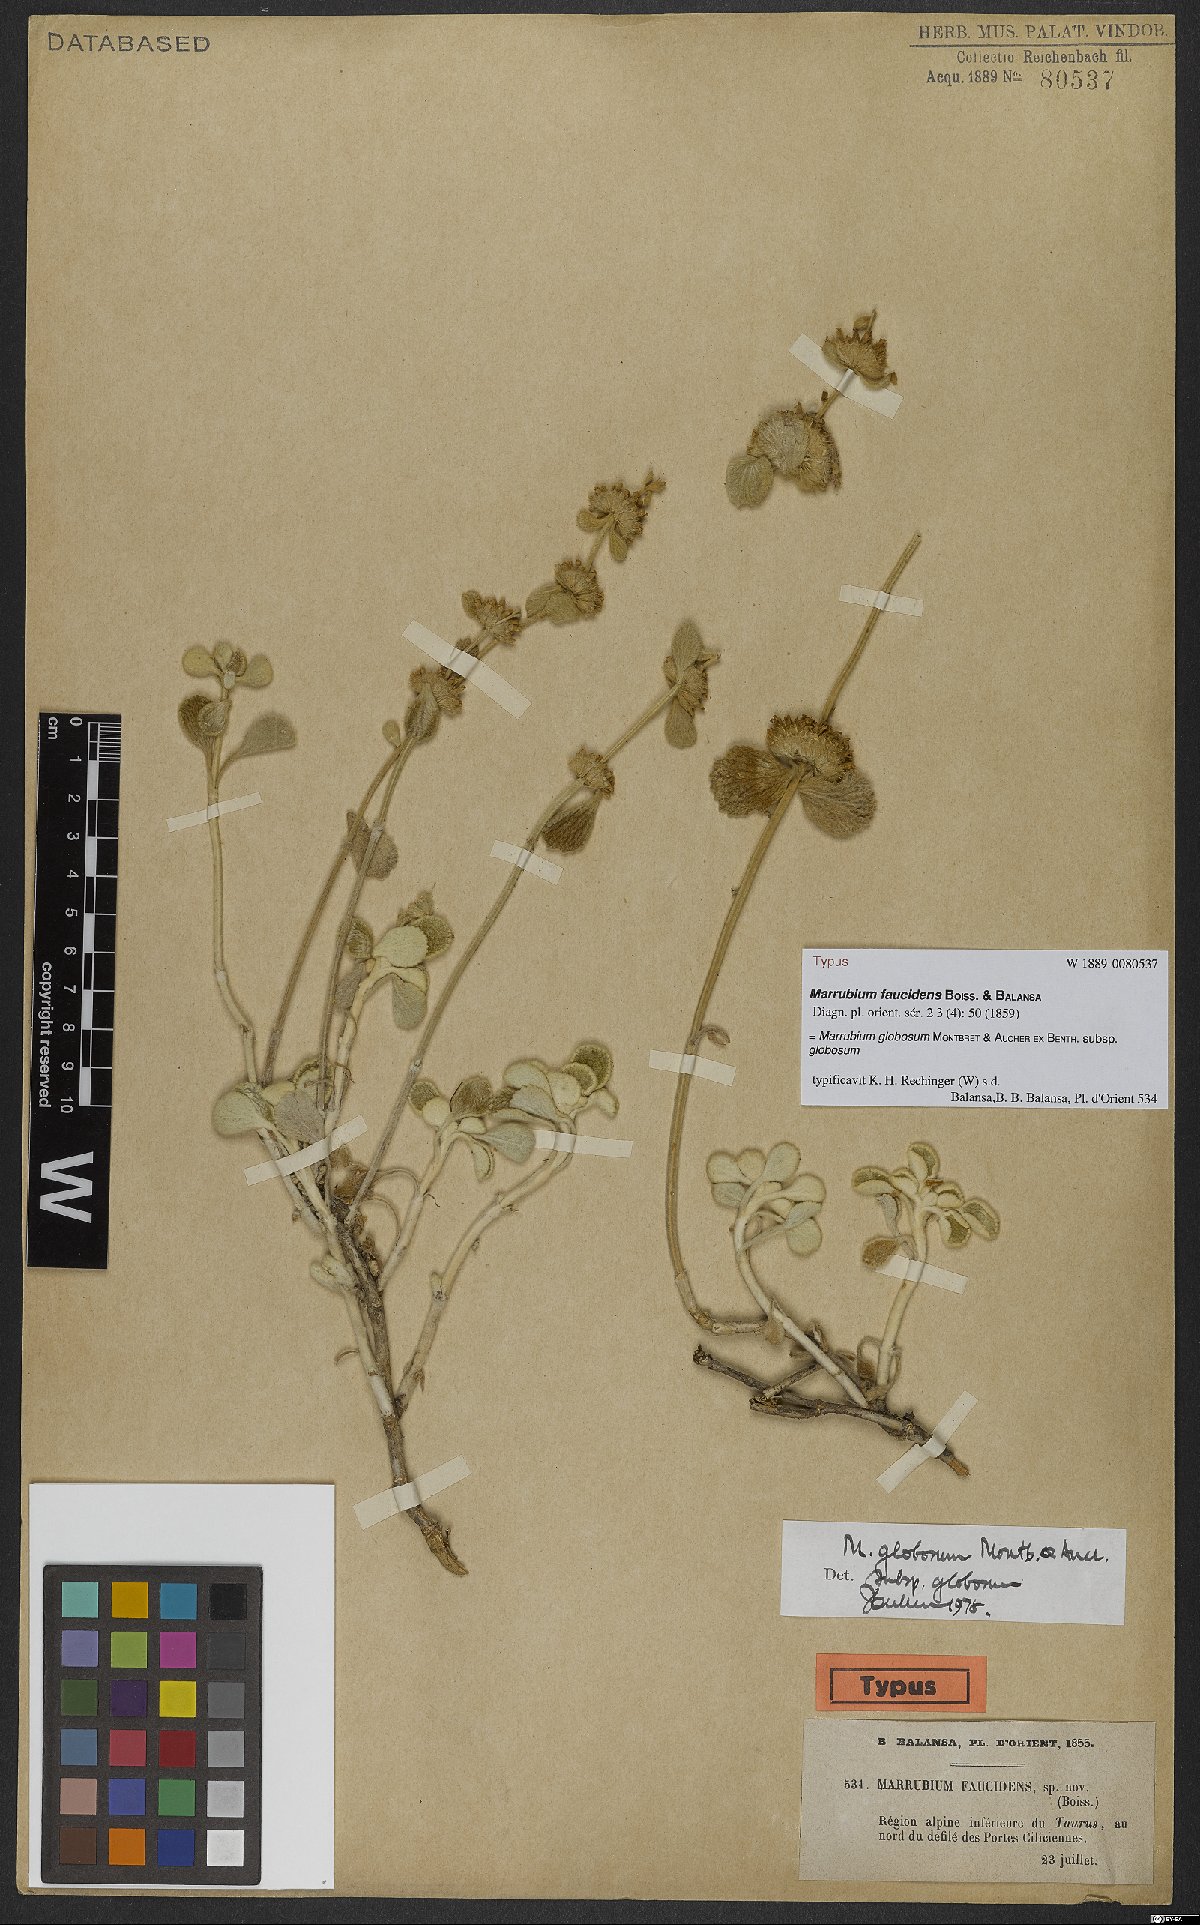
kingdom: Plantae
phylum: Tracheophyta
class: Magnoliopsida
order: Lamiales
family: Lamiaceae
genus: Marrubium
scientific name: Marrubium globosum
